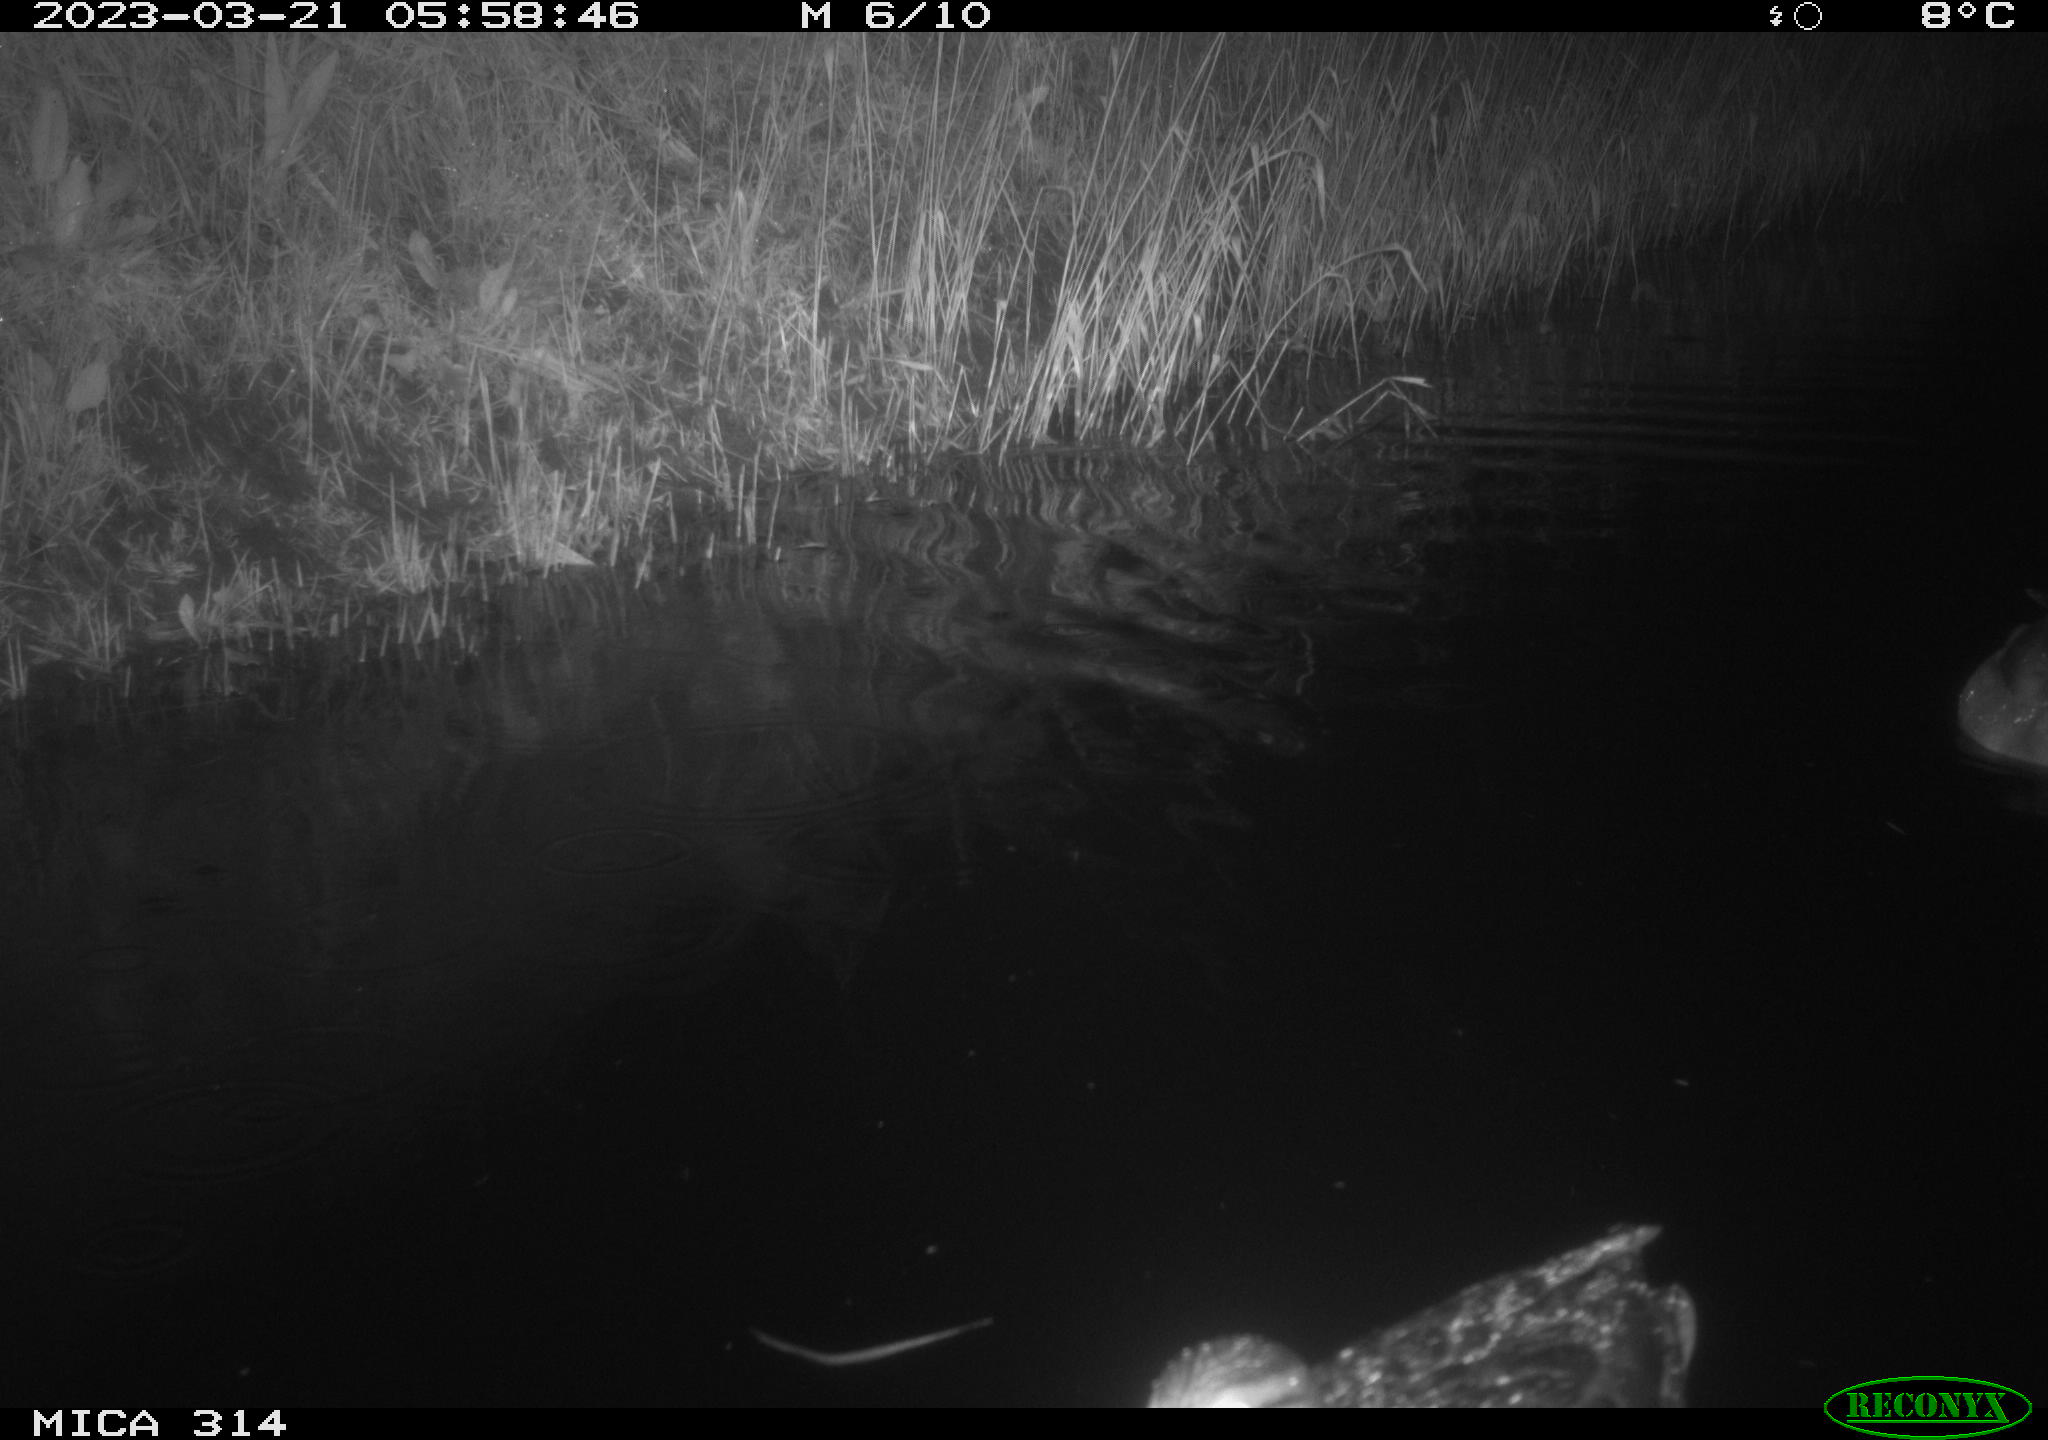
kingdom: Animalia
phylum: Chordata
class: Aves
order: Anseriformes
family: Anatidae
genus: Anas
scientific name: Anas
